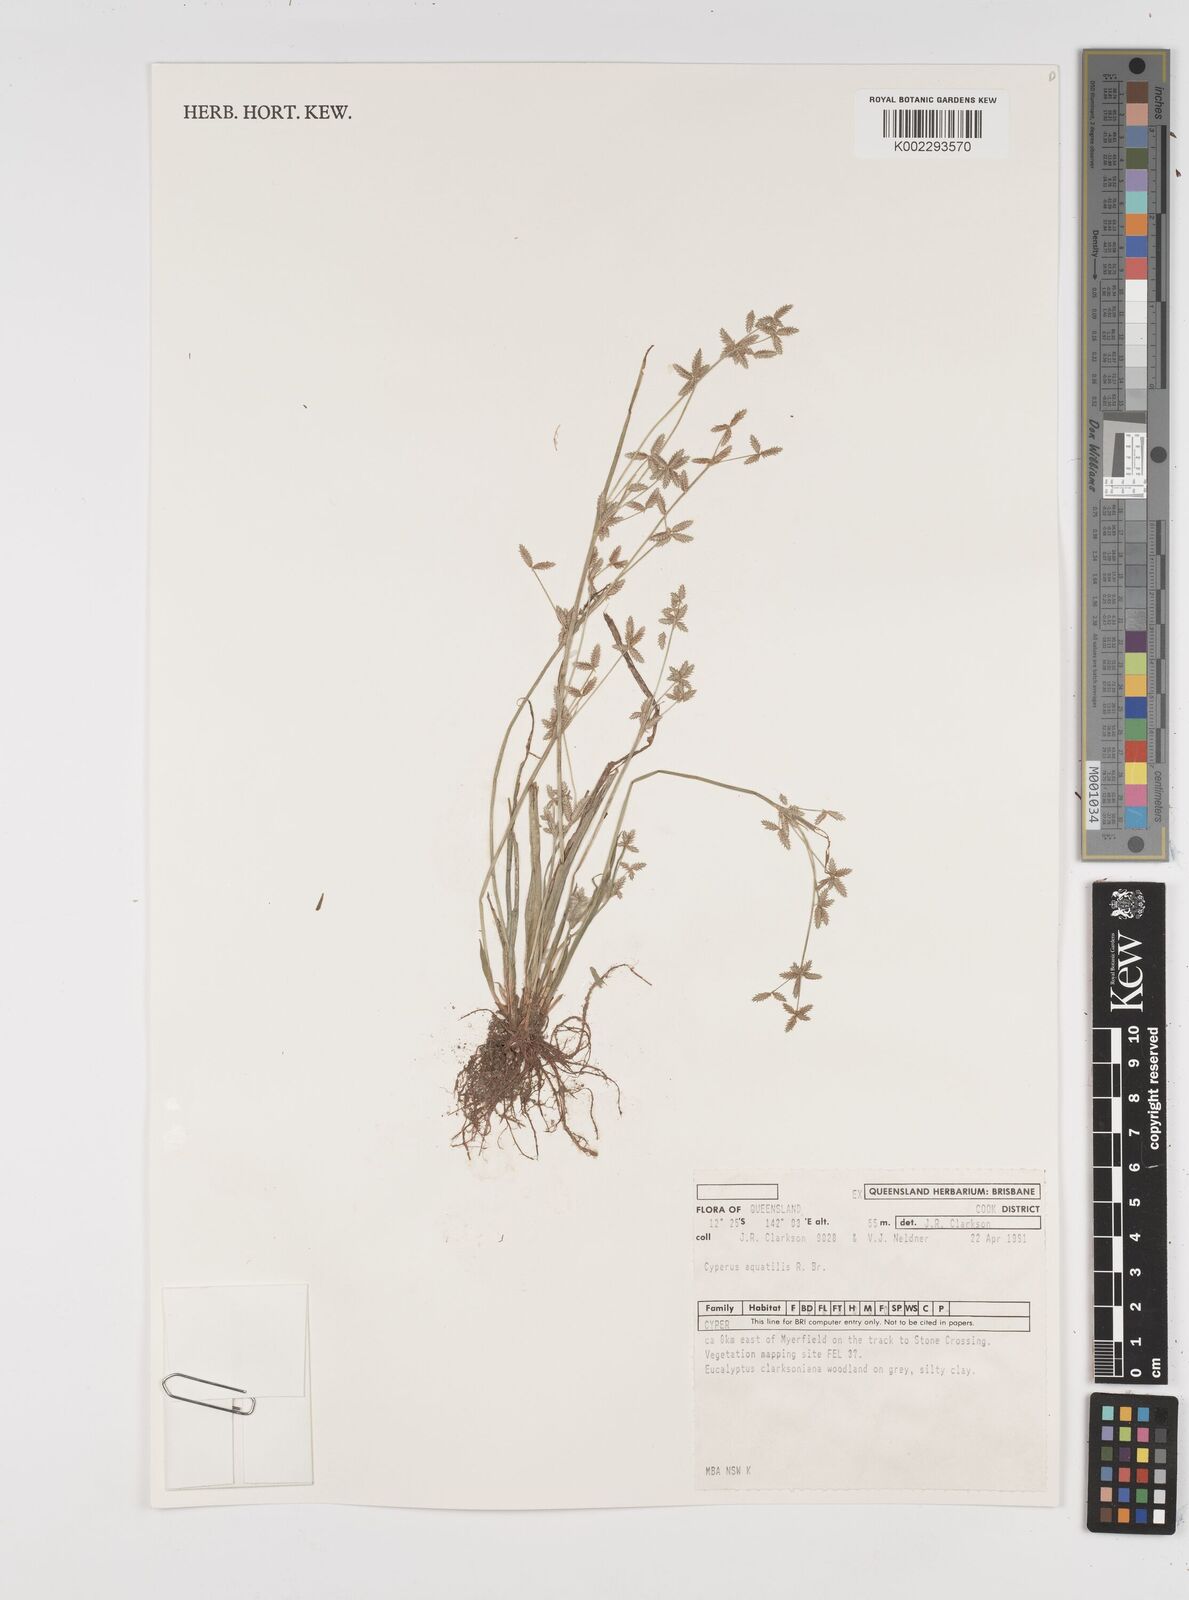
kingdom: Plantae
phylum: Tracheophyta
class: Liliopsida
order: Poales
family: Cyperaceae
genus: Cyperus
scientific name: Cyperus aquatilis
